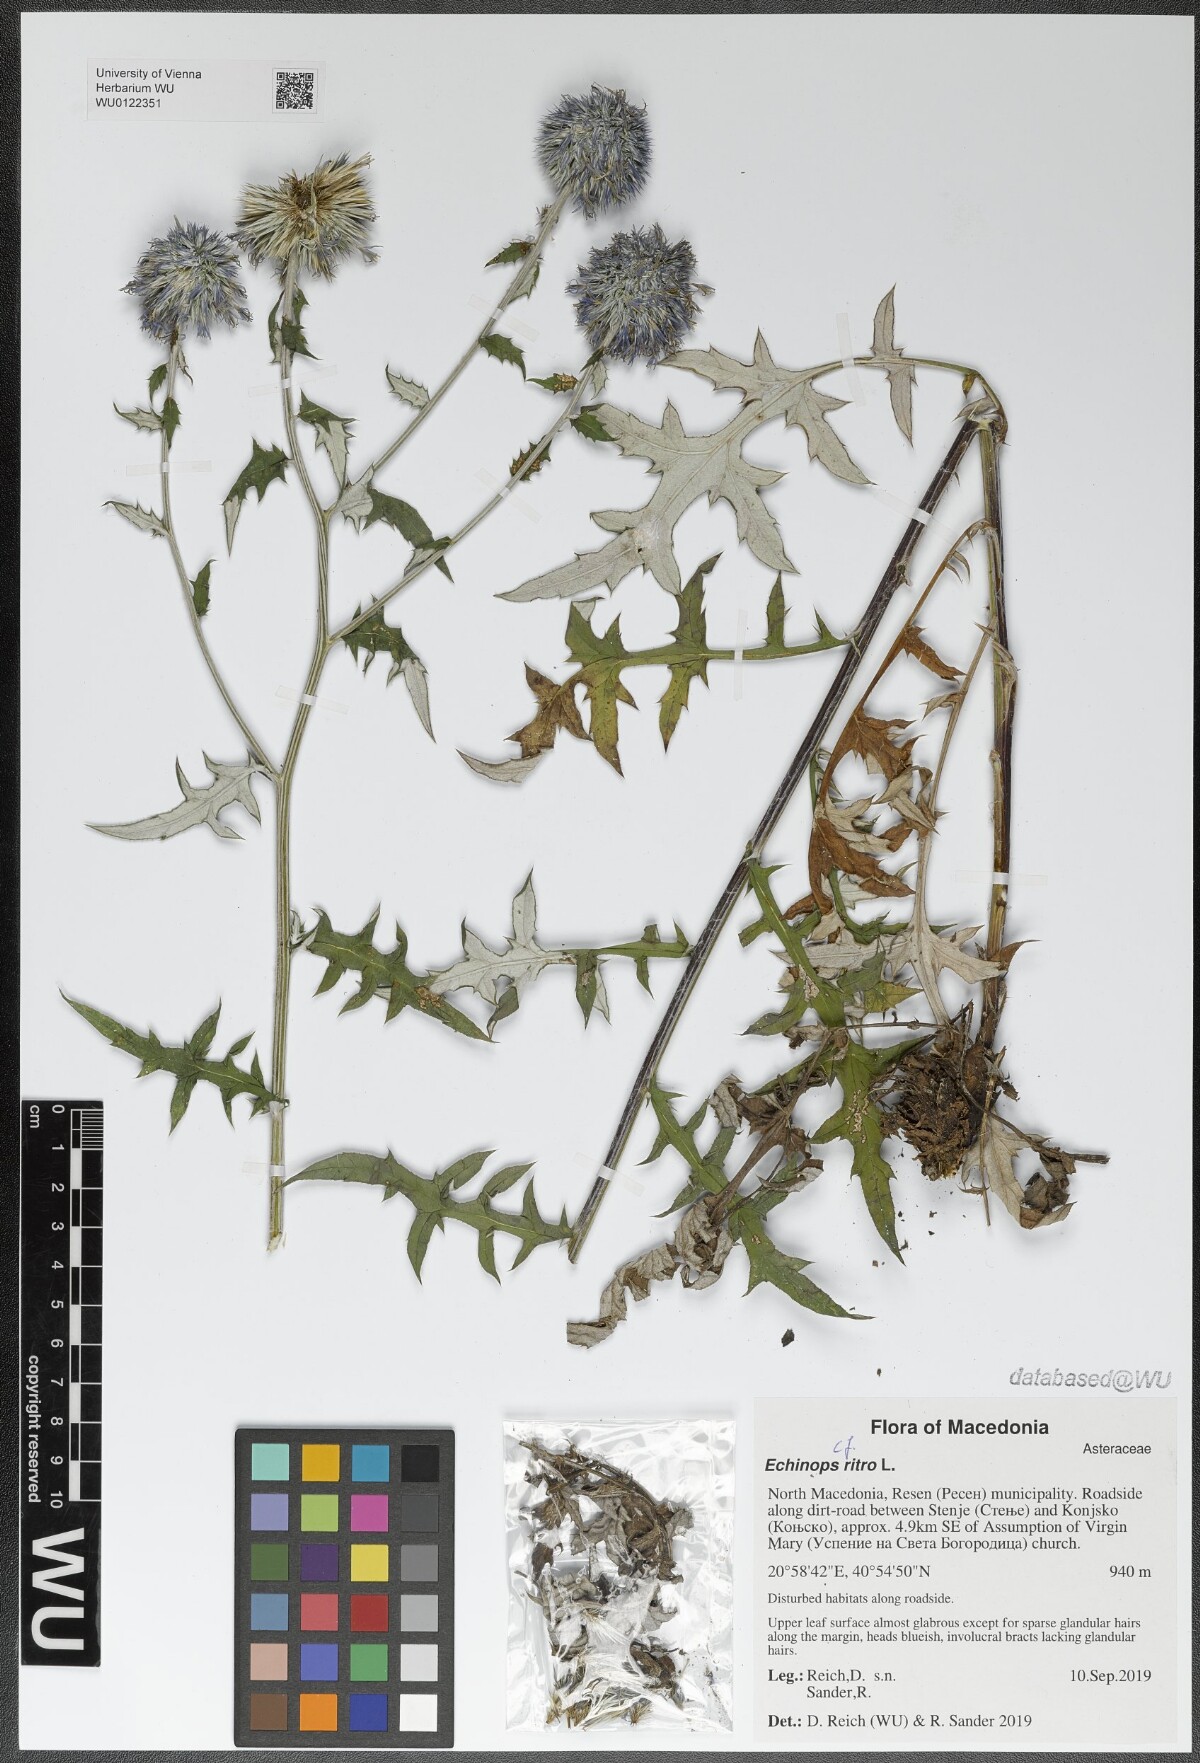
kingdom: Plantae
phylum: Tracheophyta
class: Magnoliopsida
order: Asterales
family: Asteraceae
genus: Echinops
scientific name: Echinops ritro
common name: Globe thistle
